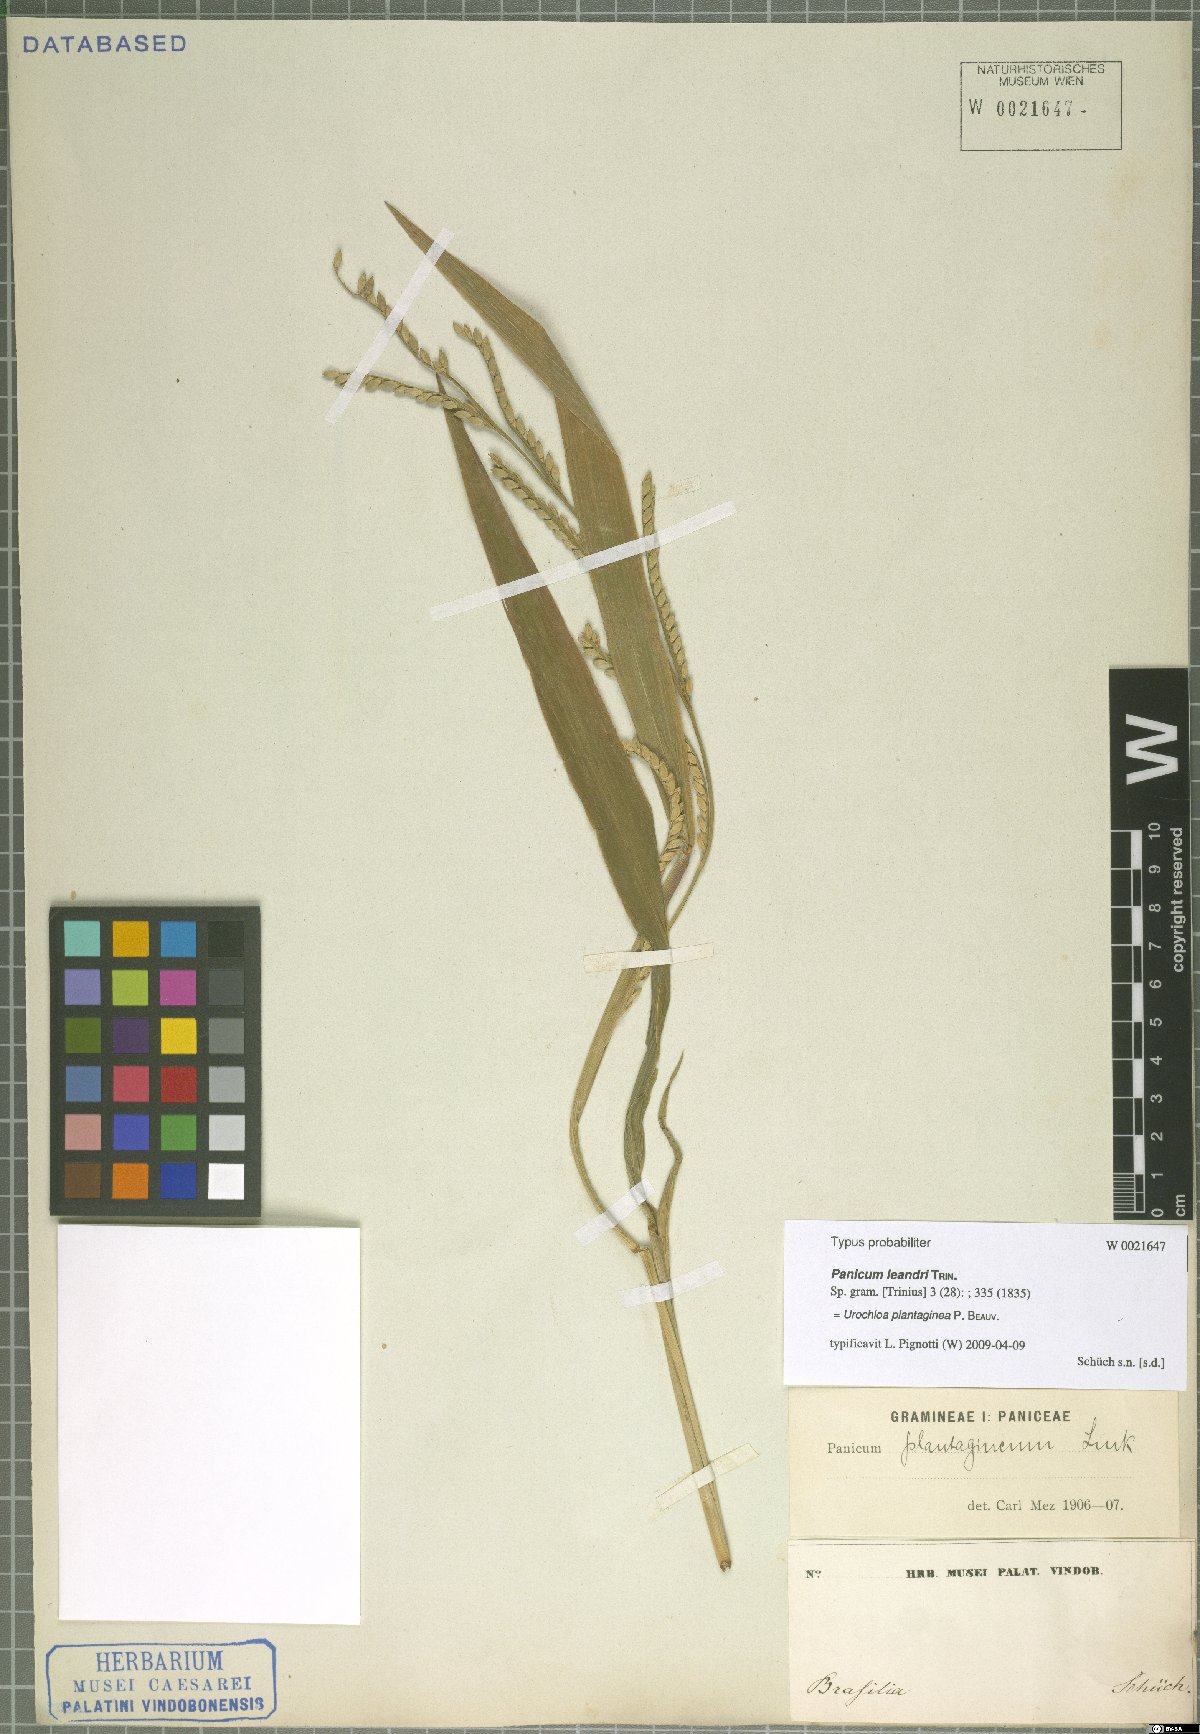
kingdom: Plantae
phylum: Tracheophyta
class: Liliopsida
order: Poales
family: Poaceae
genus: Urochloa
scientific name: Urochloa plantaginea
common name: Plantain signalgrass
